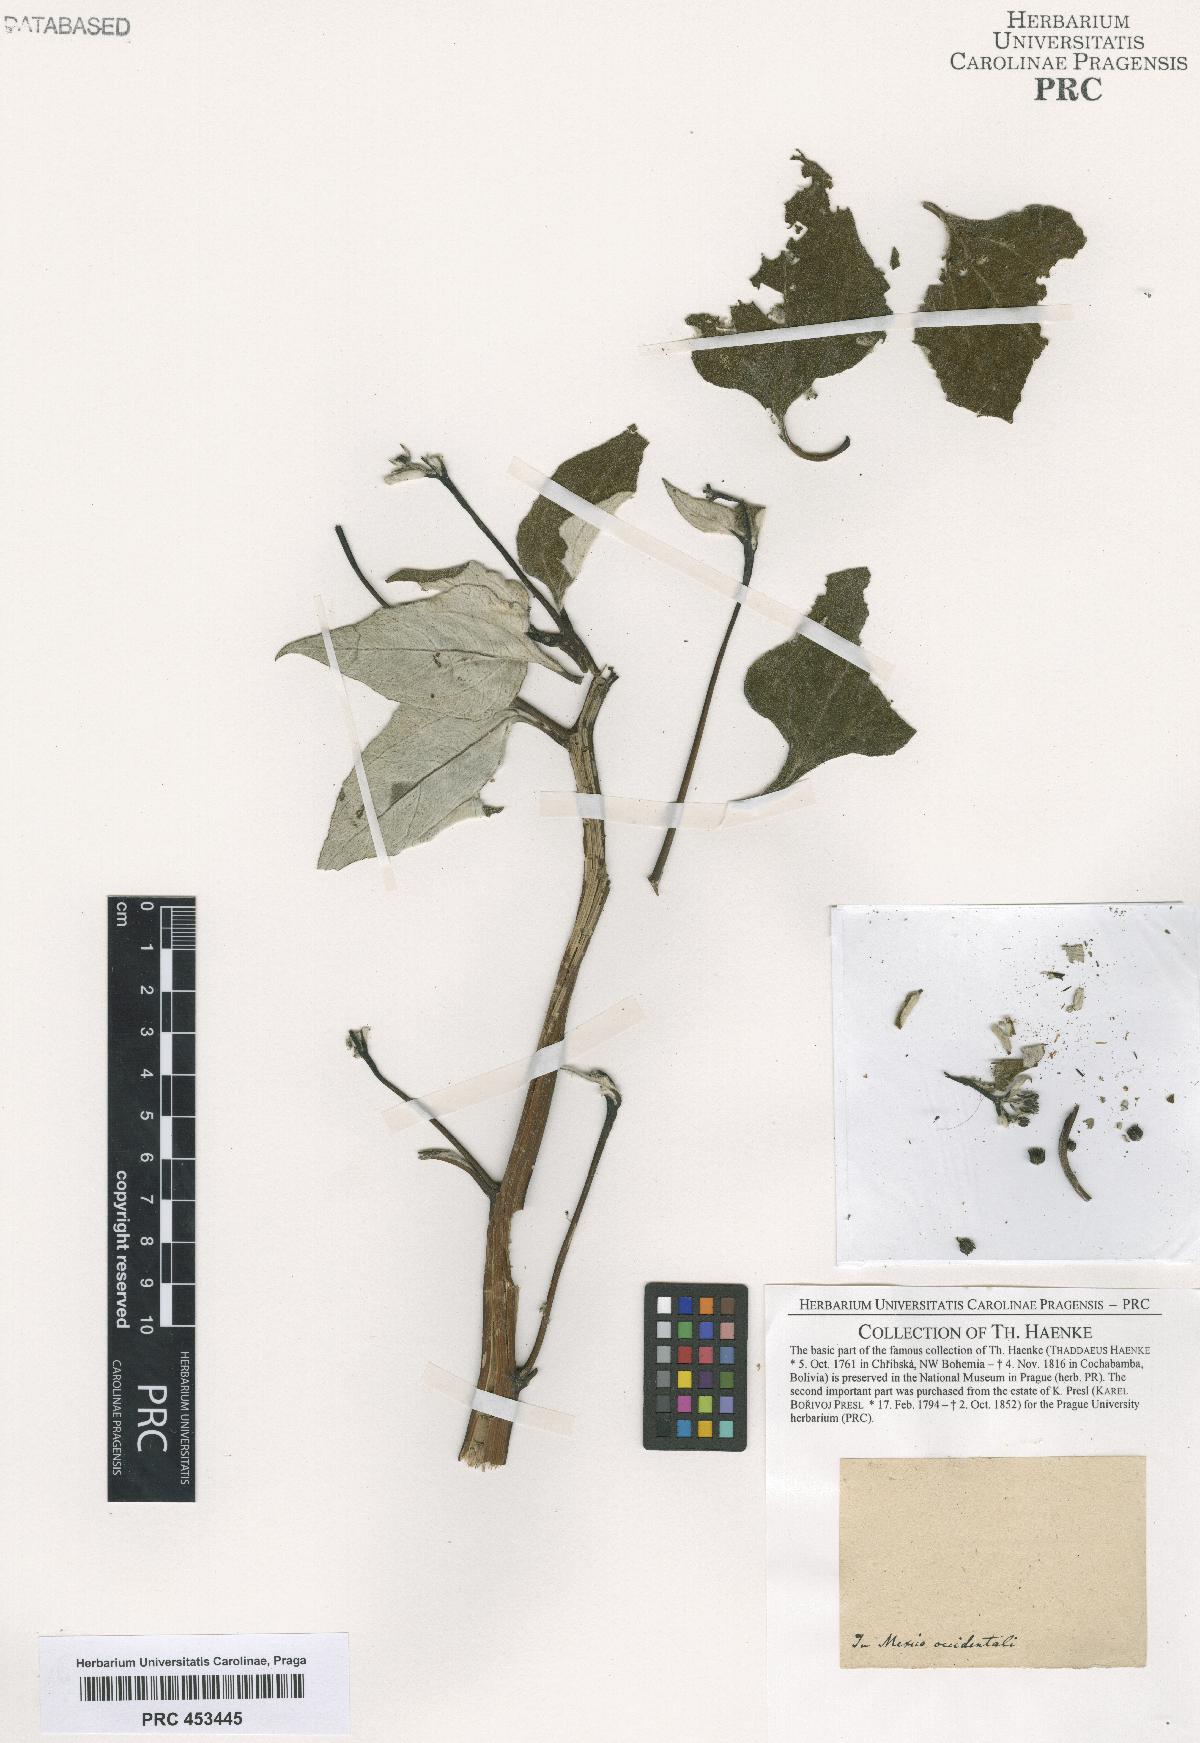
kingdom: Plantae
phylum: Tracheophyta
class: Magnoliopsida
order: Asterales
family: Asteraceae
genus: Andromachia
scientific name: Andromachia
